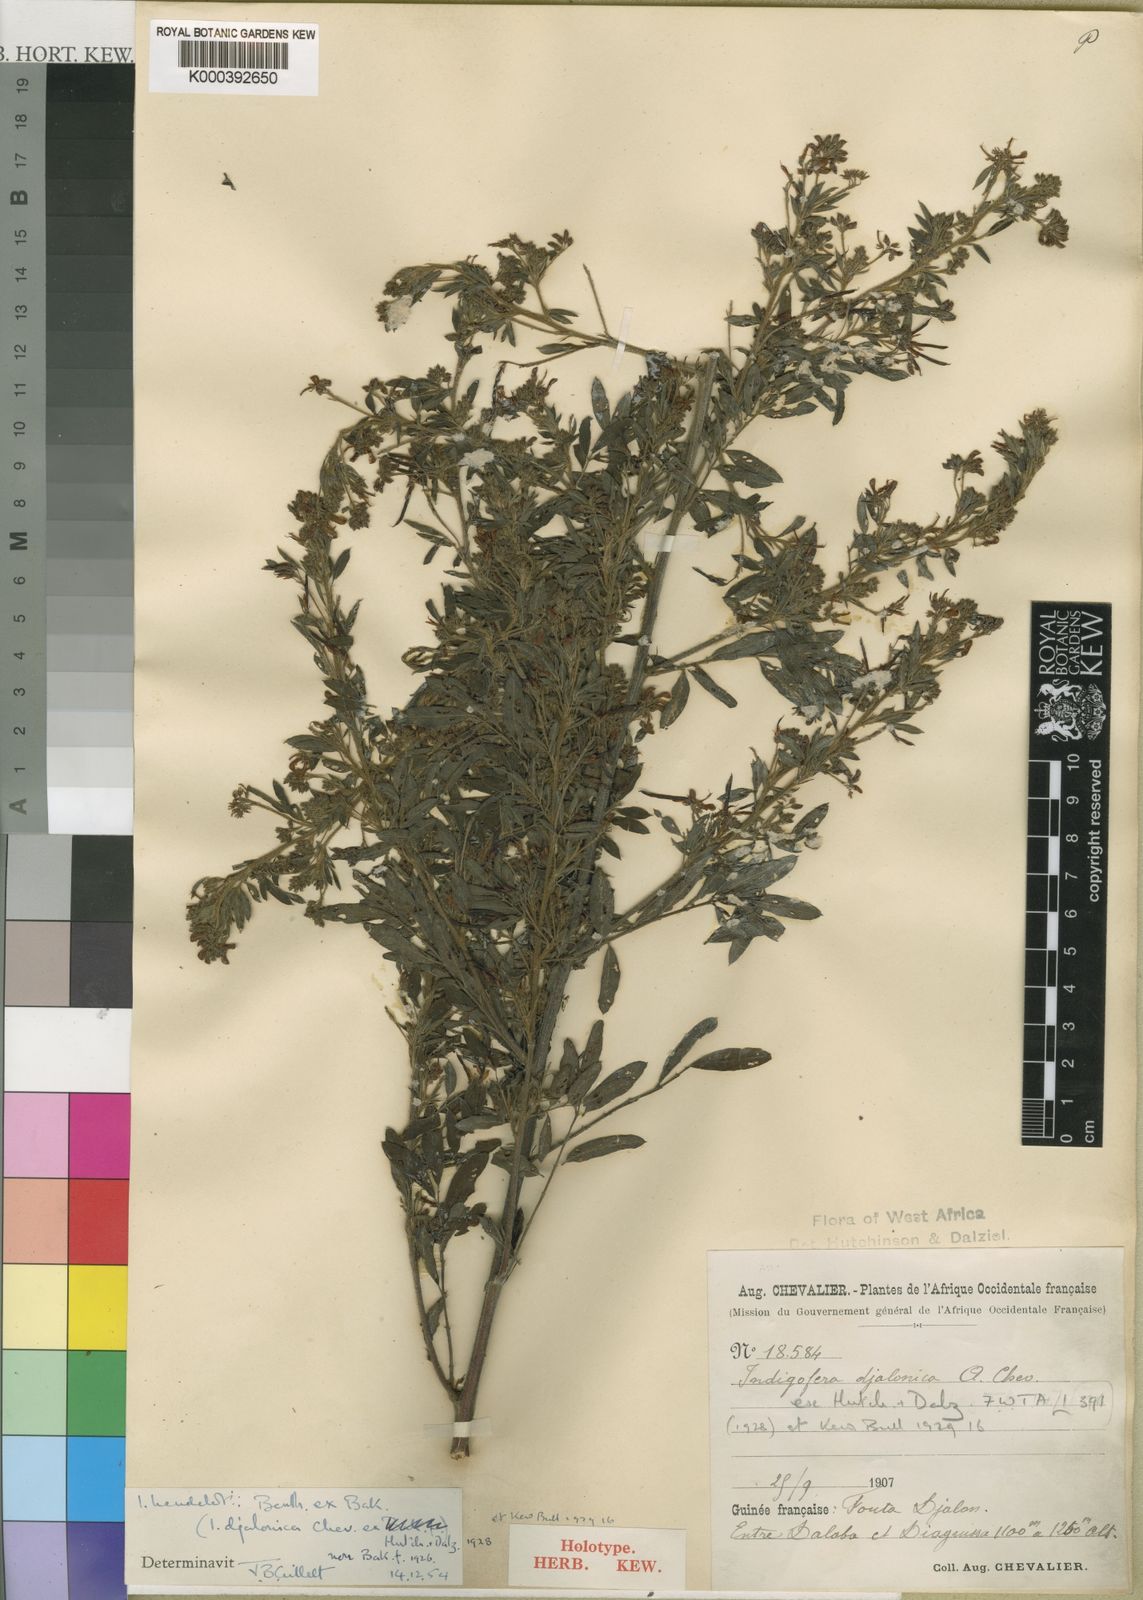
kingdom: Plantae
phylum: Tracheophyta
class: Magnoliopsida
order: Fabales
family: Fabaceae
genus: Indigofera
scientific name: Indigofera heudelotii
